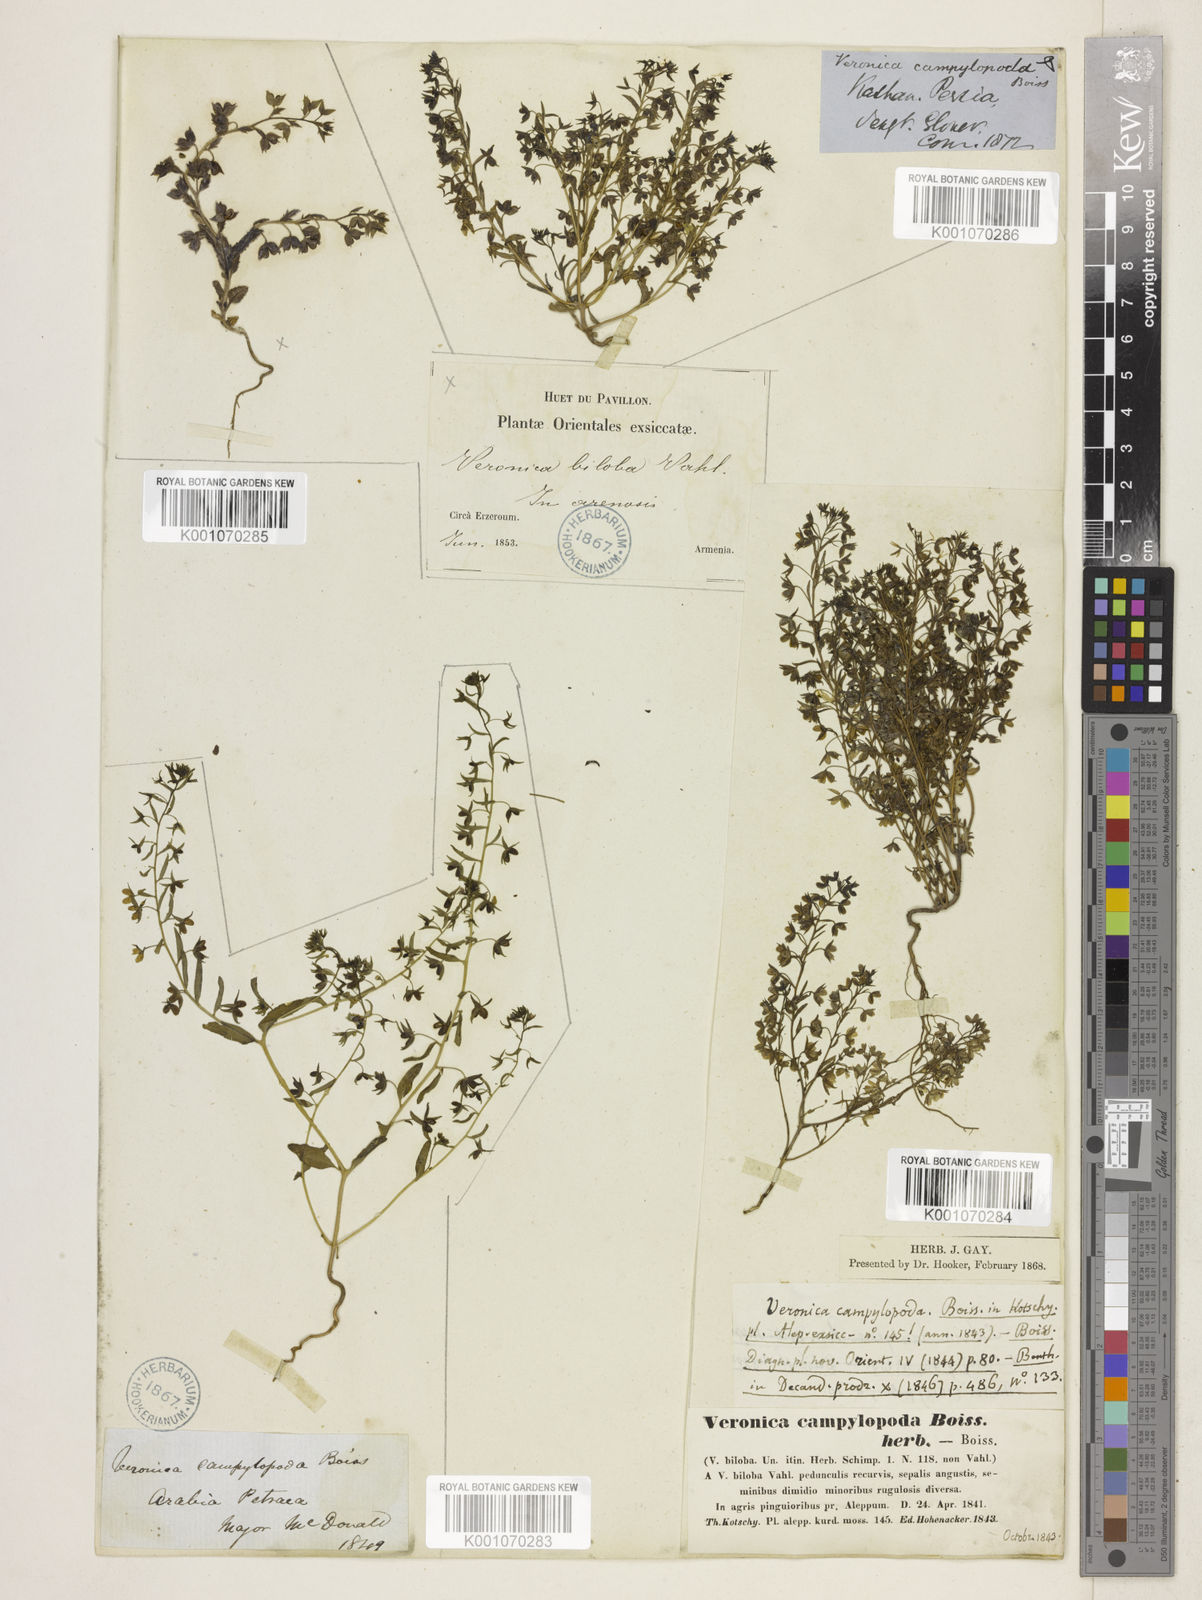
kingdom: Plantae
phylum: Tracheophyta
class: Magnoliopsida
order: Lamiales
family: Plantaginaceae
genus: Veronica
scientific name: Veronica campylopoda
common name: Bent-foot speedwell
